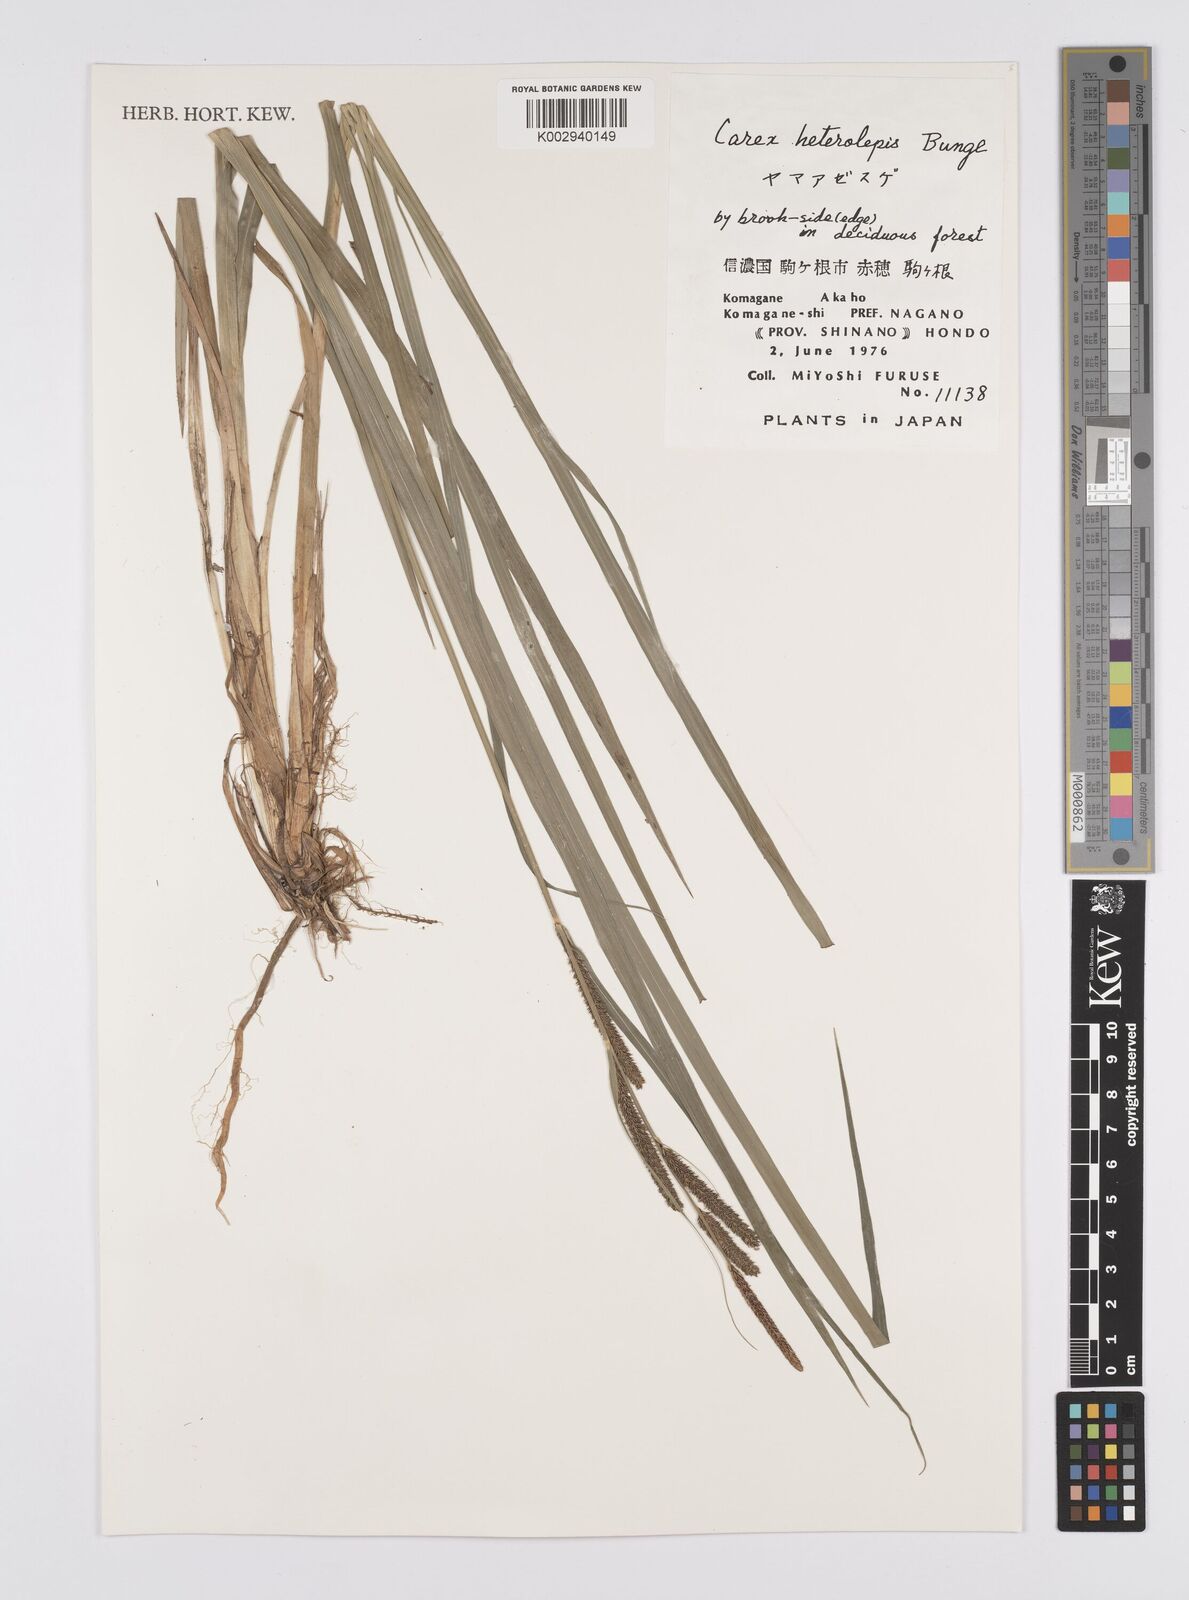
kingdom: Plantae
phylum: Tracheophyta
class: Liliopsida
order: Poales
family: Cyperaceae
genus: Carex
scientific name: Carex cruenta
